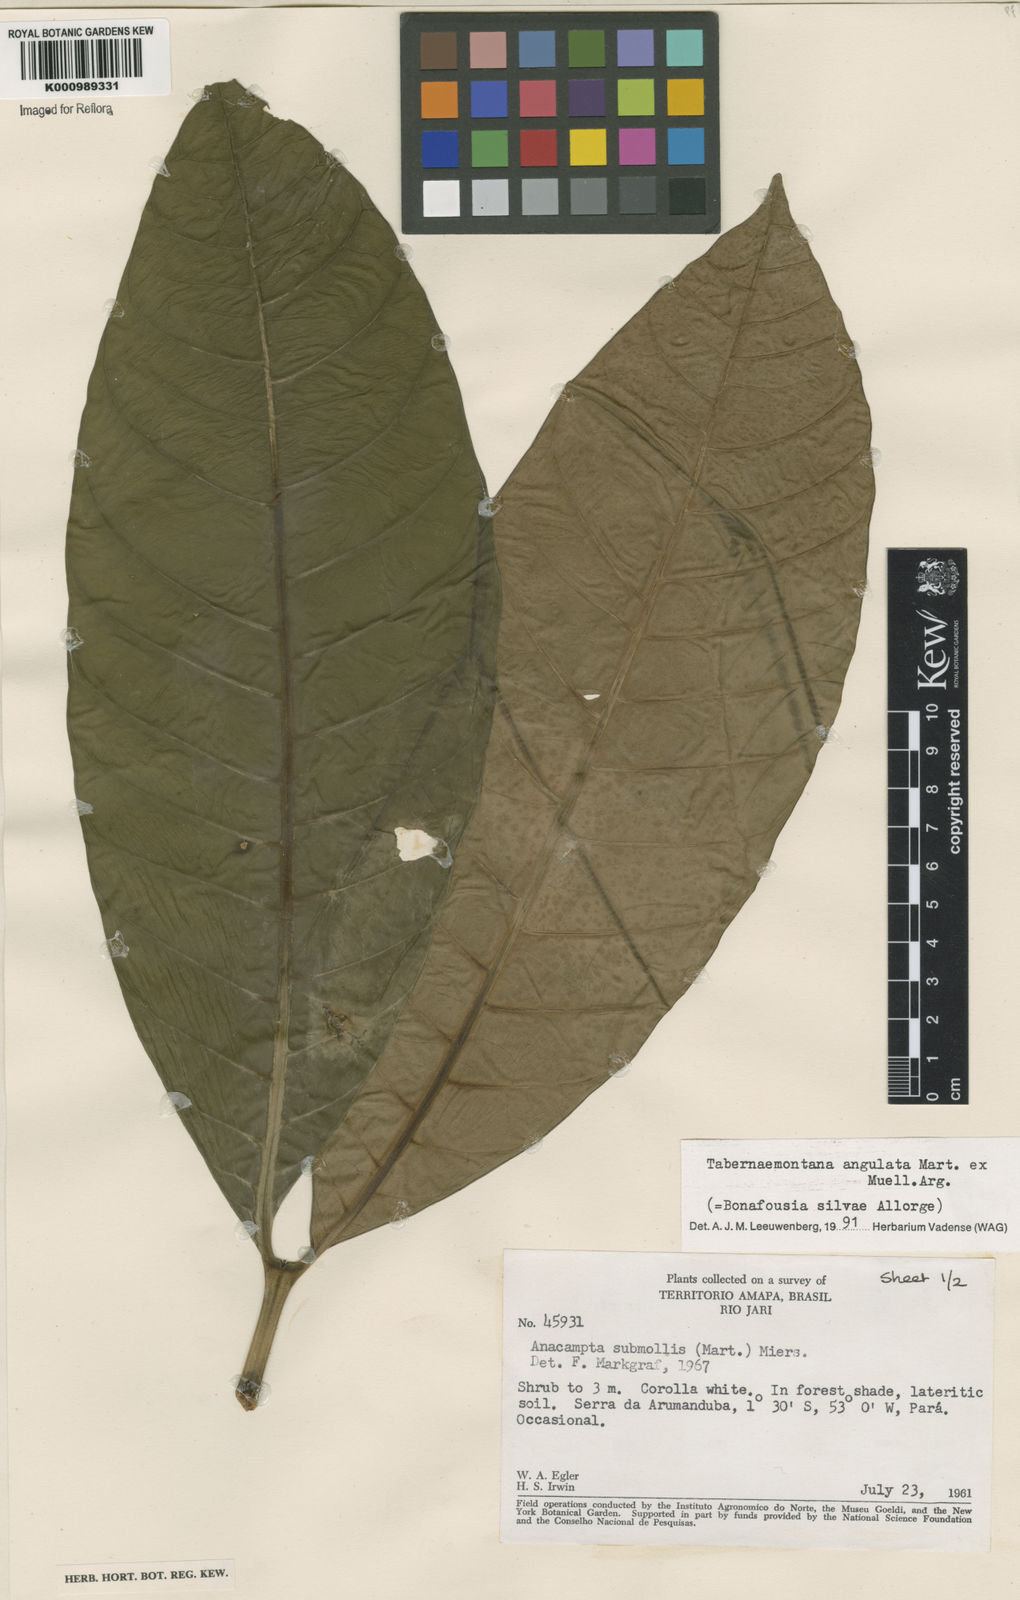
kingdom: Plantae
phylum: Tracheophyta
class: Magnoliopsida
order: Gentianales
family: Apocynaceae
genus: Tabernaemontana
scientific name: Tabernaemontana
